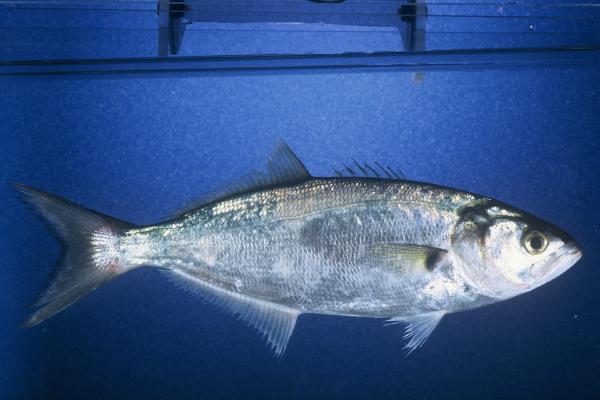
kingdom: Animalia
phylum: Chordata
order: Perciformes
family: Pomatomidae
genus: Pomatomus
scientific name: Pomatomus saltatrix
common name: Bluefish
